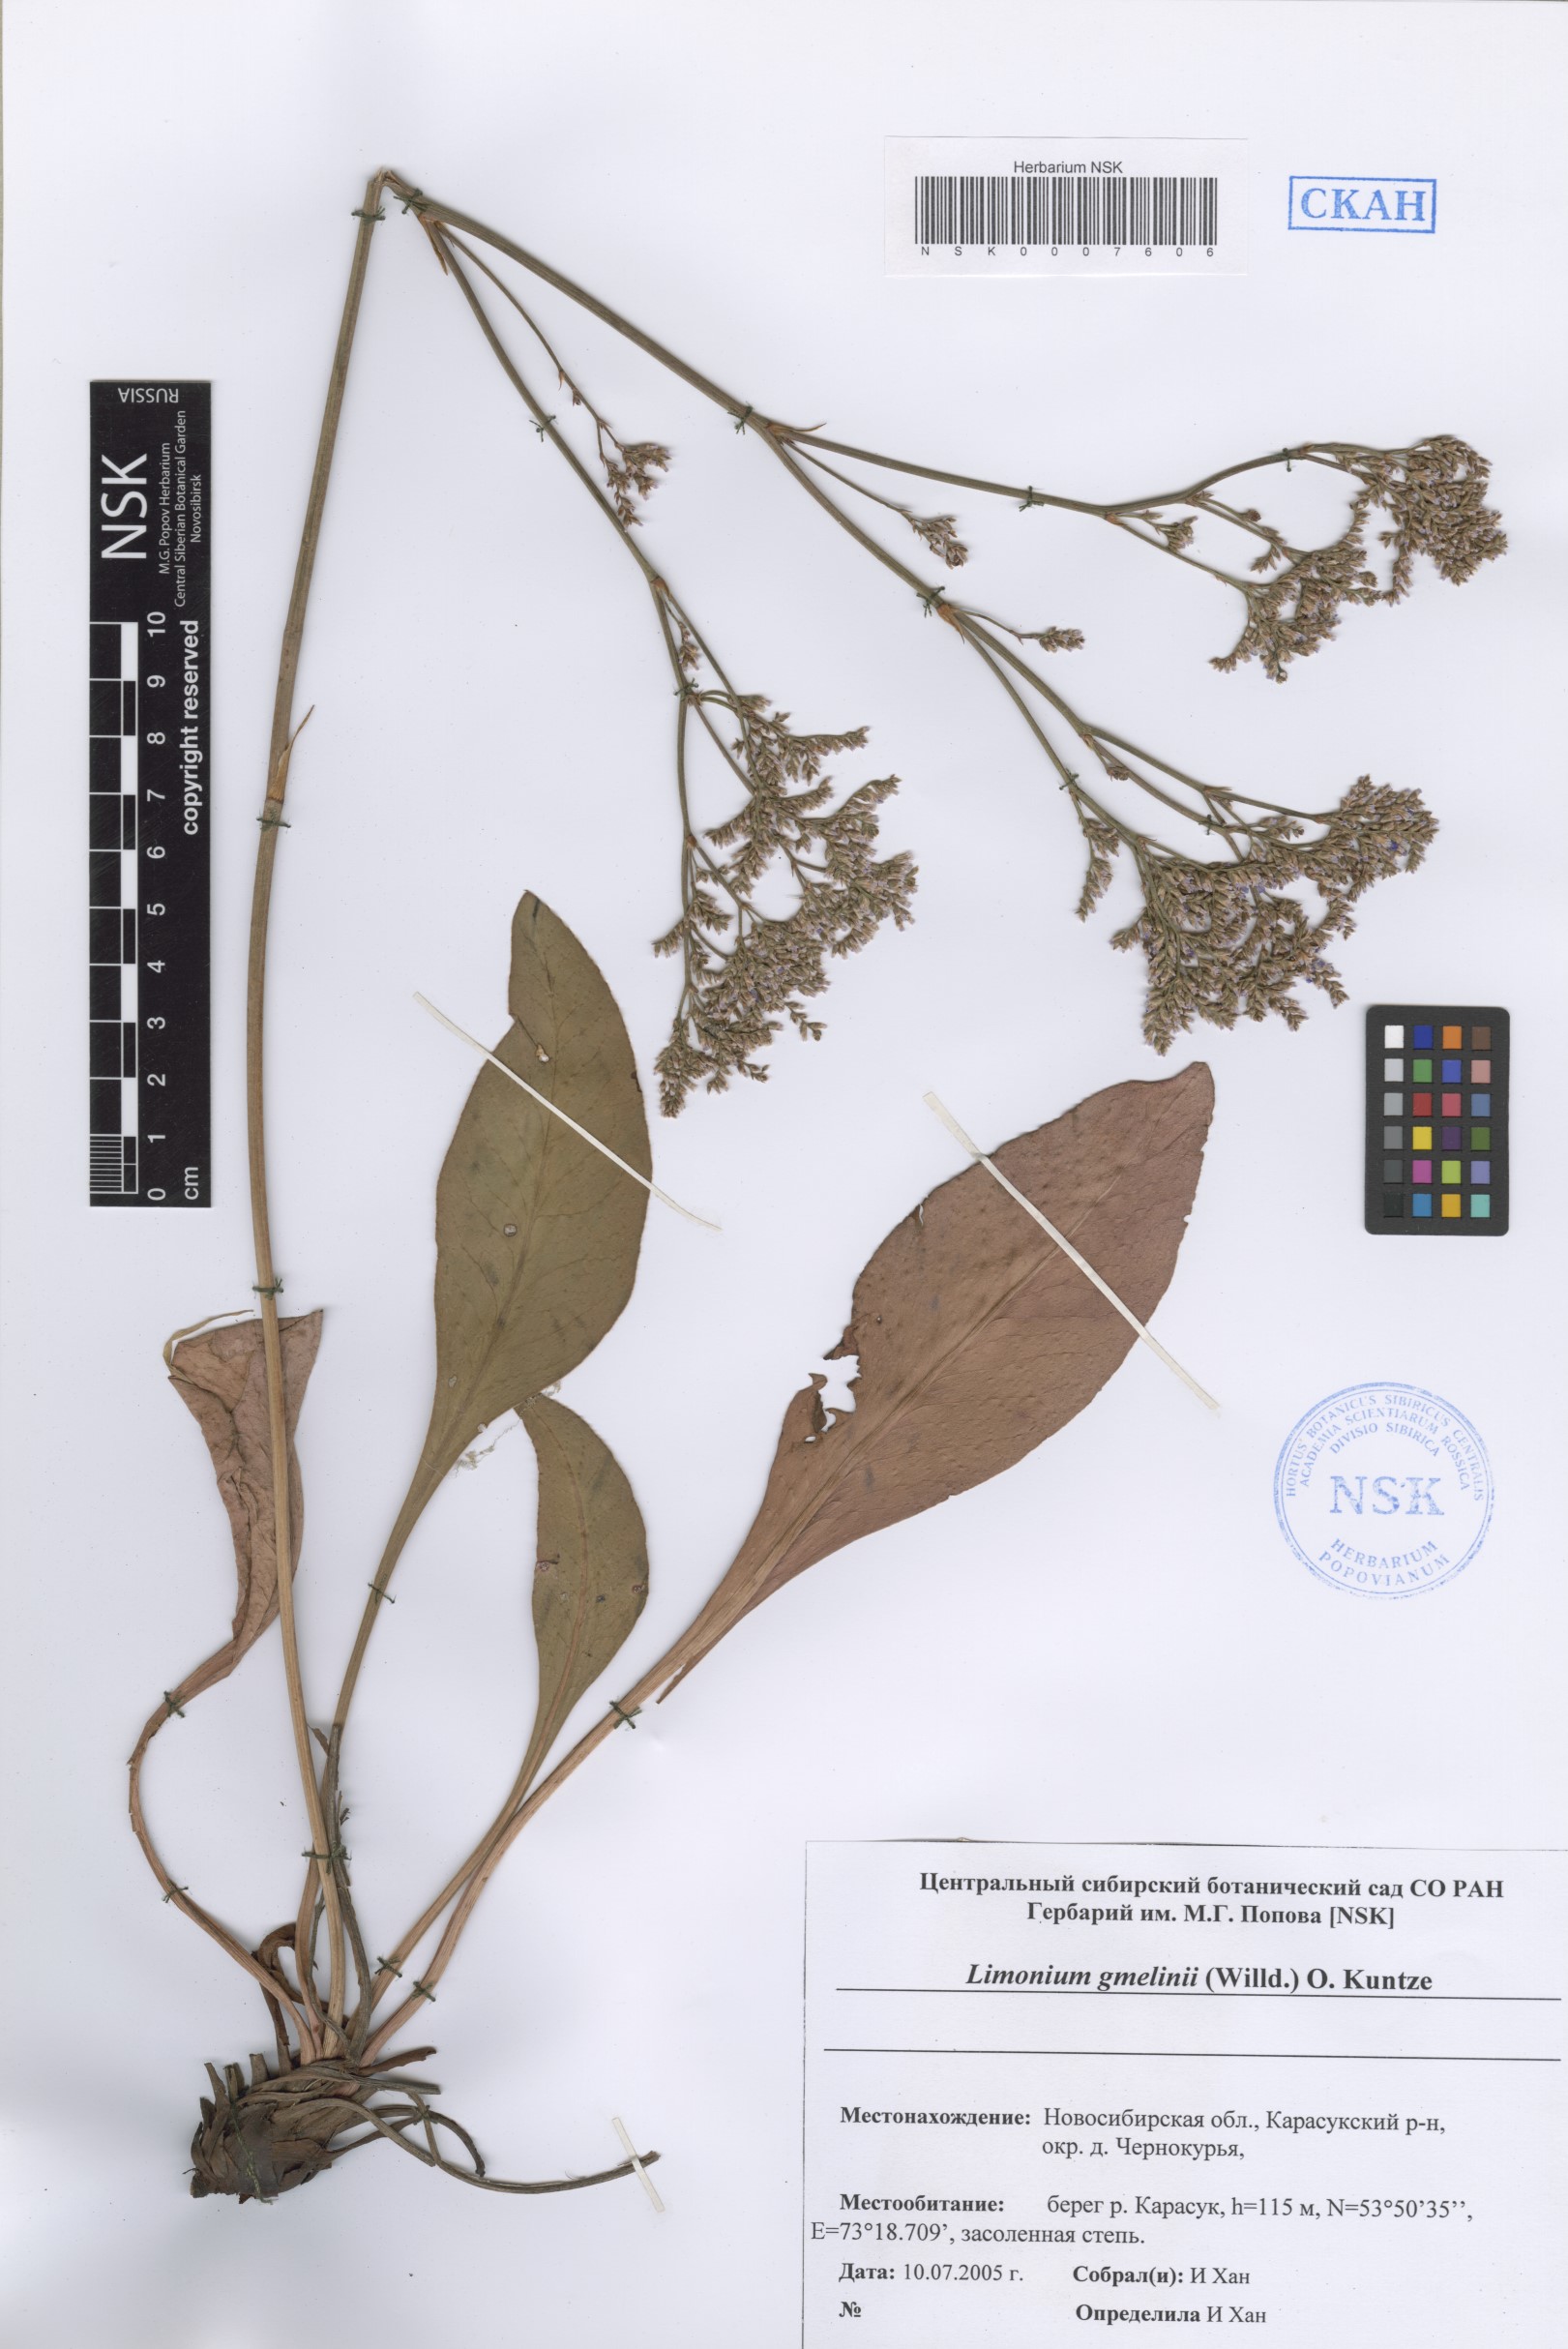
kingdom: Plantae
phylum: Tracheophyta
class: Magnoliopsida
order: Caryophyllales
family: Plumbaginaceae
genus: Limonium
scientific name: Limonium gmelini
